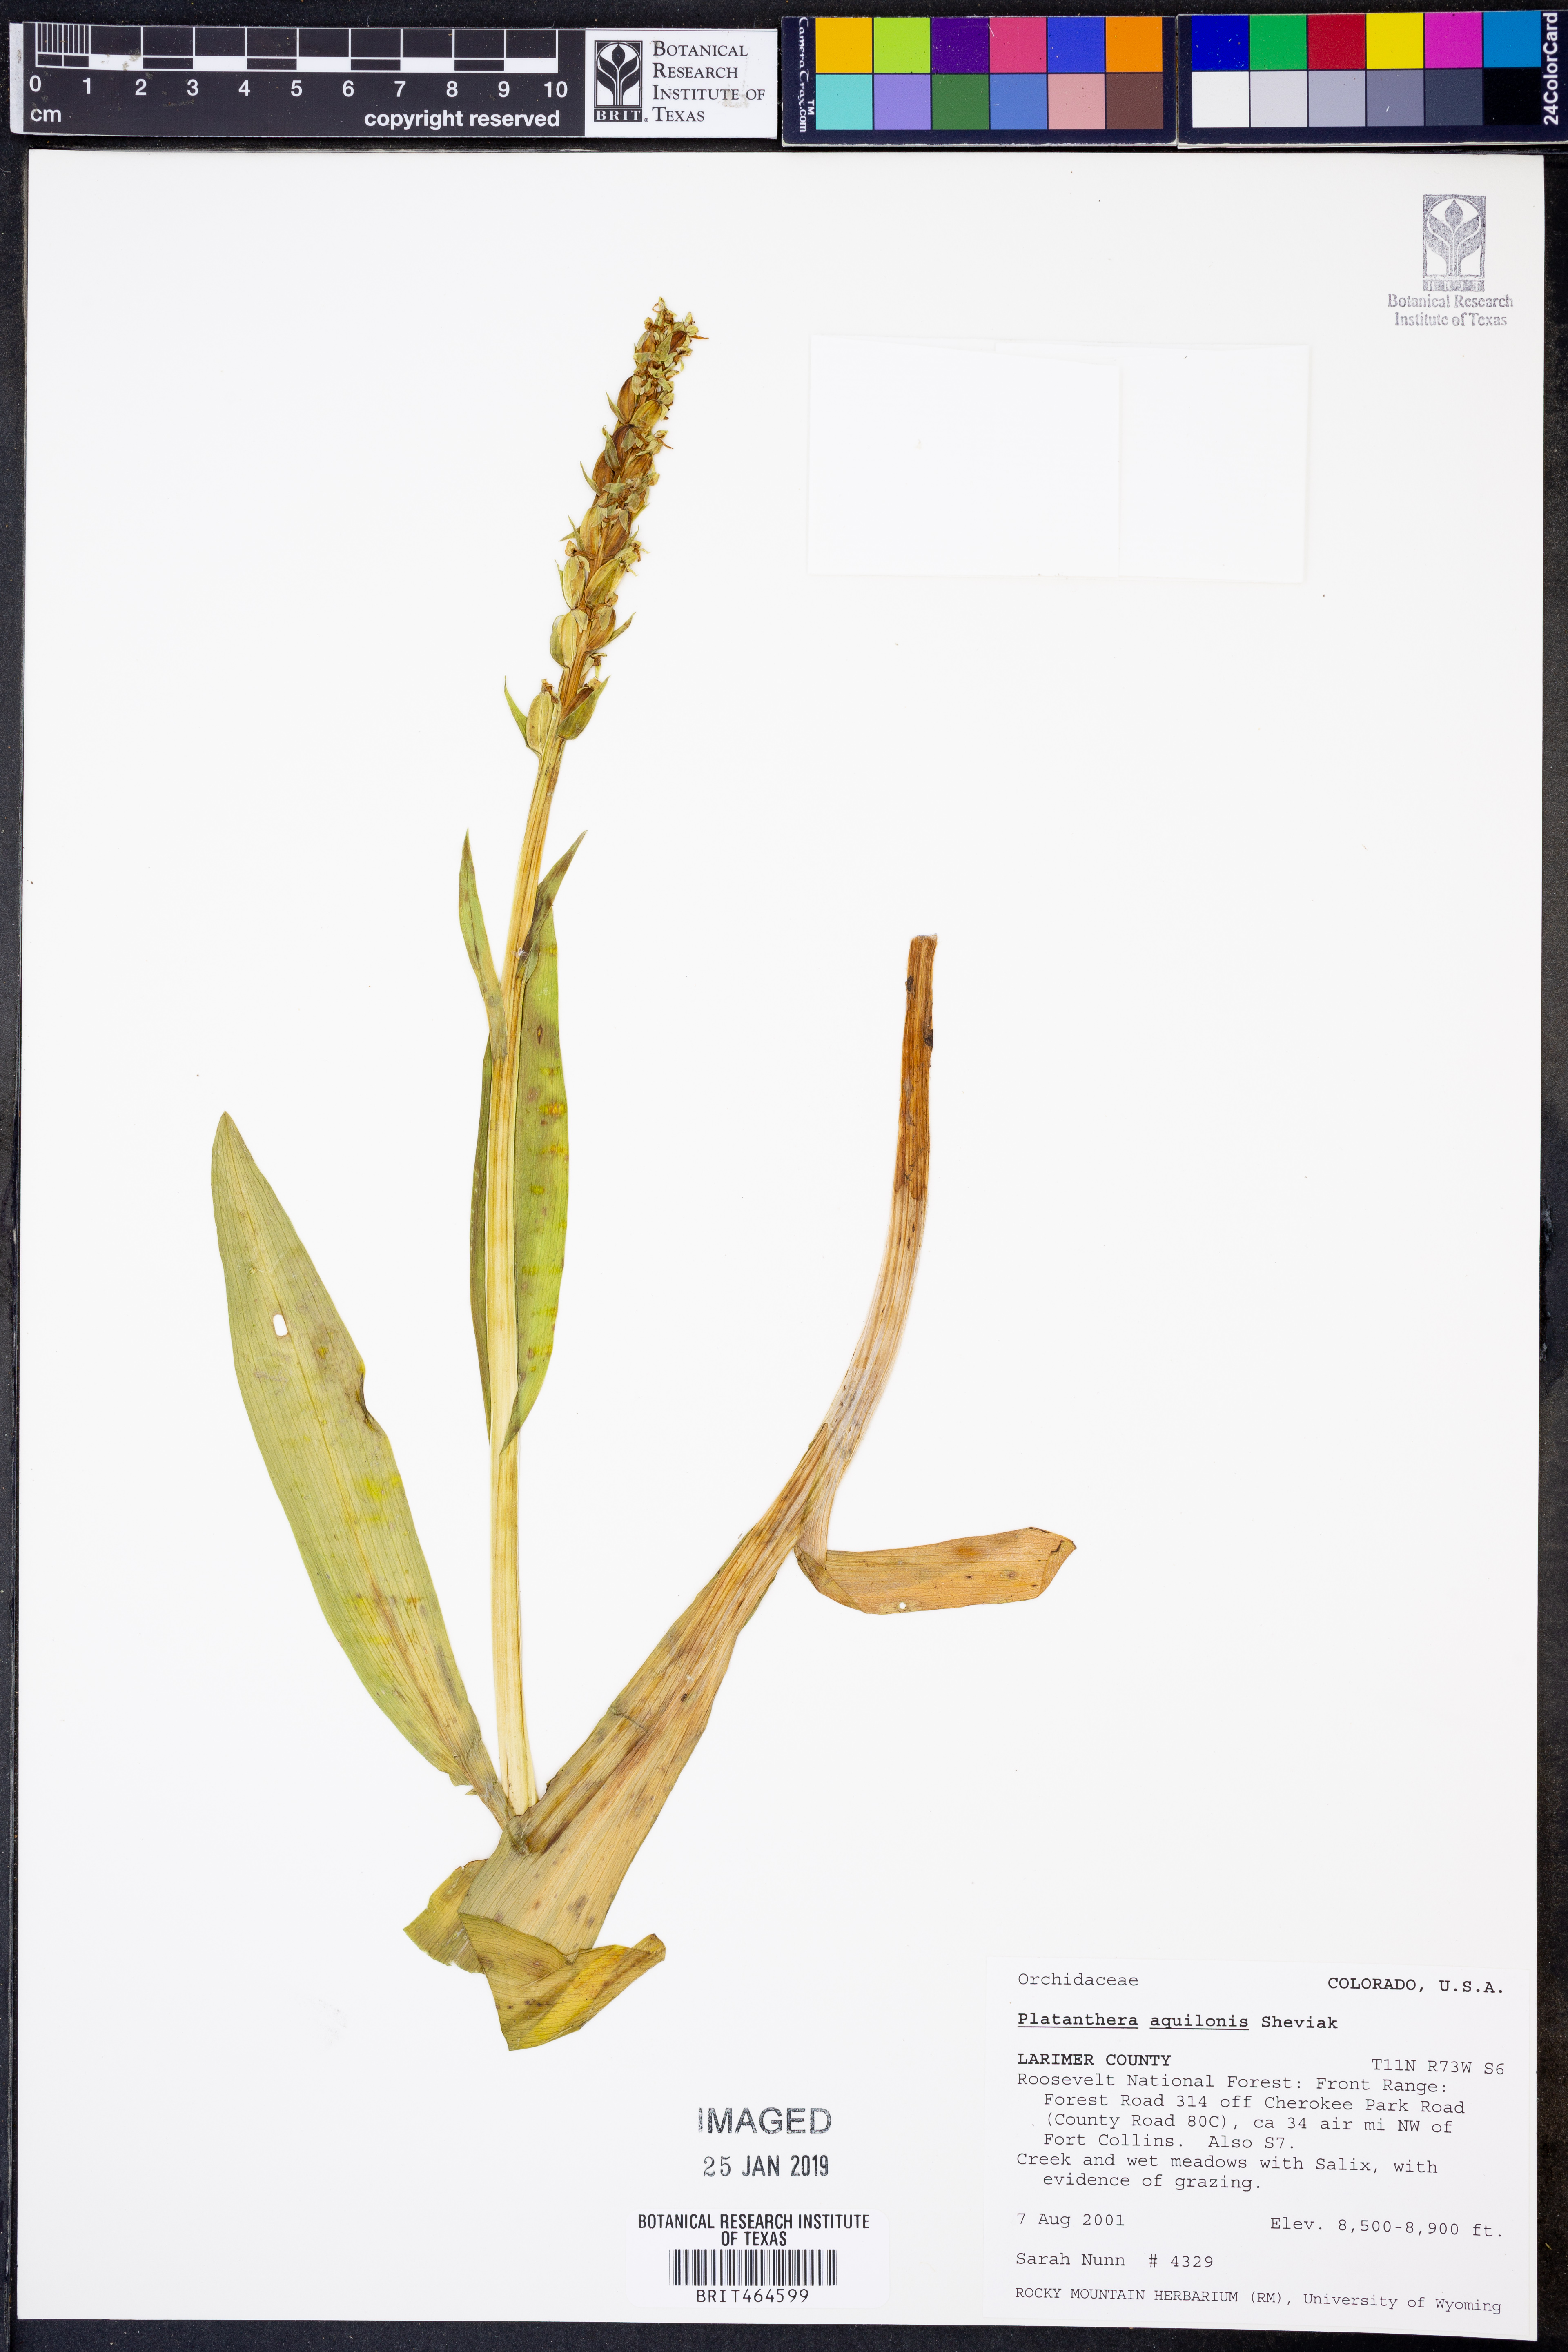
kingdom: Plantae
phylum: Tracheophyta
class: Liliopsida
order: Asparagales
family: Orchidaceae
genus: Platanthera
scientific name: Platanthera aquilonis
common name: Northern green orchid
